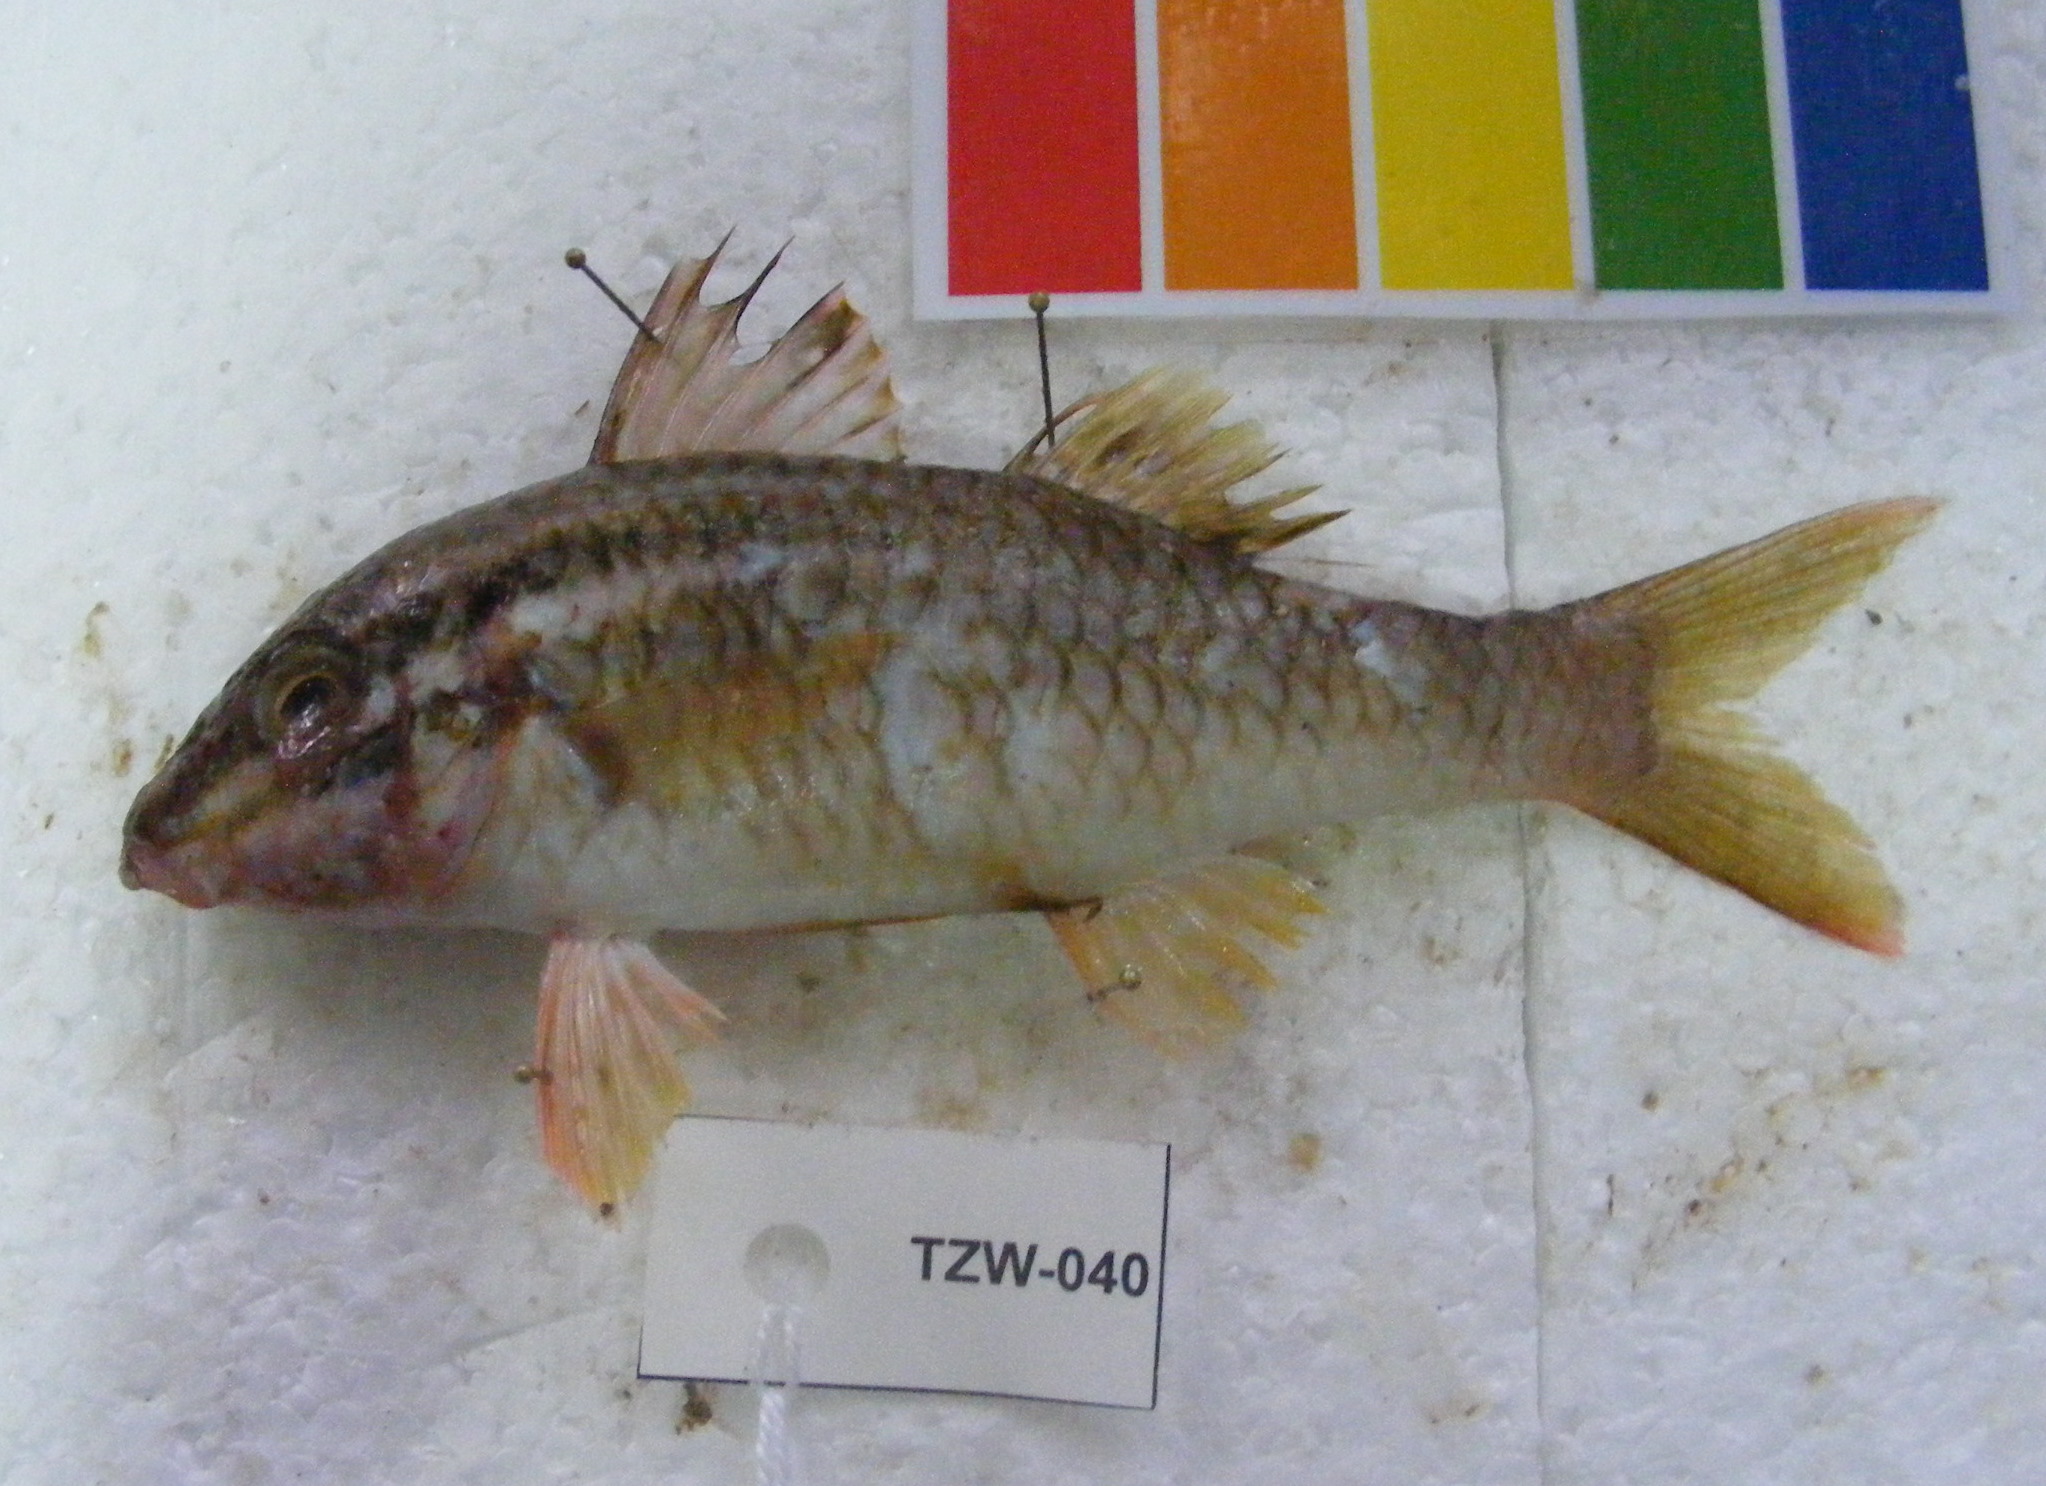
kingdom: Animalia
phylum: Chordata
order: Perciformes
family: Mullidae
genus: Parupeneus
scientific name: Parupeneus ciliatus
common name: White-lined goatfish
